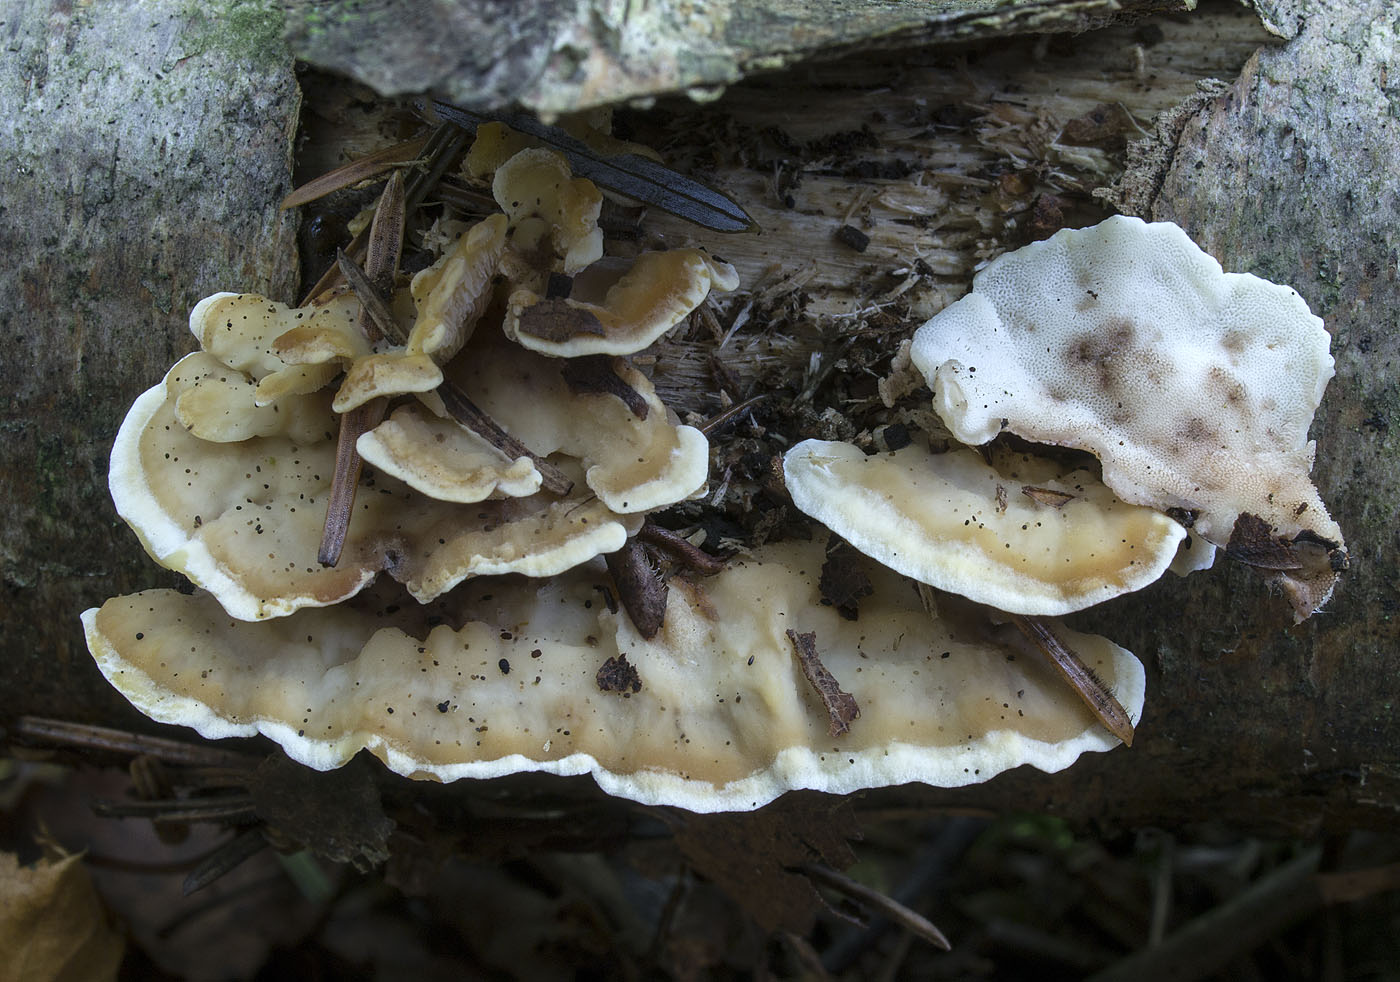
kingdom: Fungi
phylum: Basidiomycota
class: Agaricomycetes
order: Polyporales
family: Steccherinaceae
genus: Antrodiella
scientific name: Antrodiella pallescens
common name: tønder-elastikporesvamp
